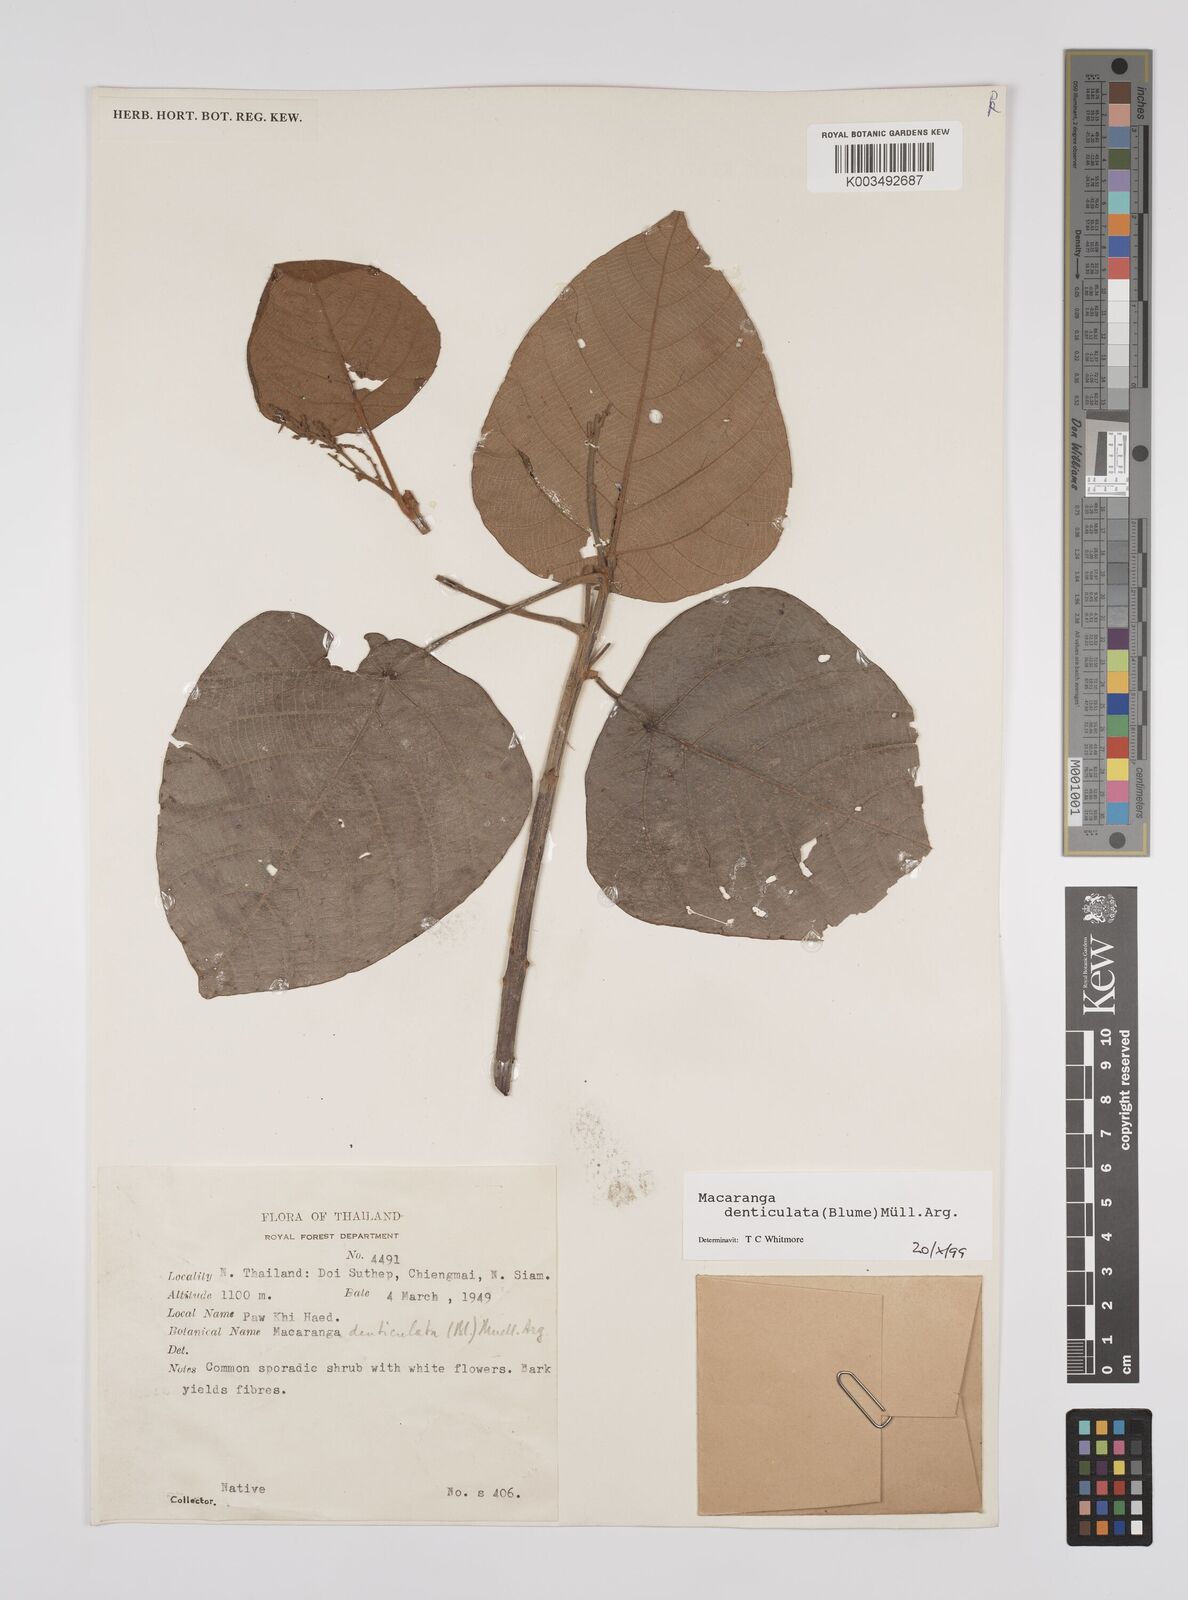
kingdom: Plantae
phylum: Tracheophyta
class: Magnoliopsida
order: Malpighiales
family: Euphorbiaceae
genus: Macaranga
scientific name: Macaranga denticulata
